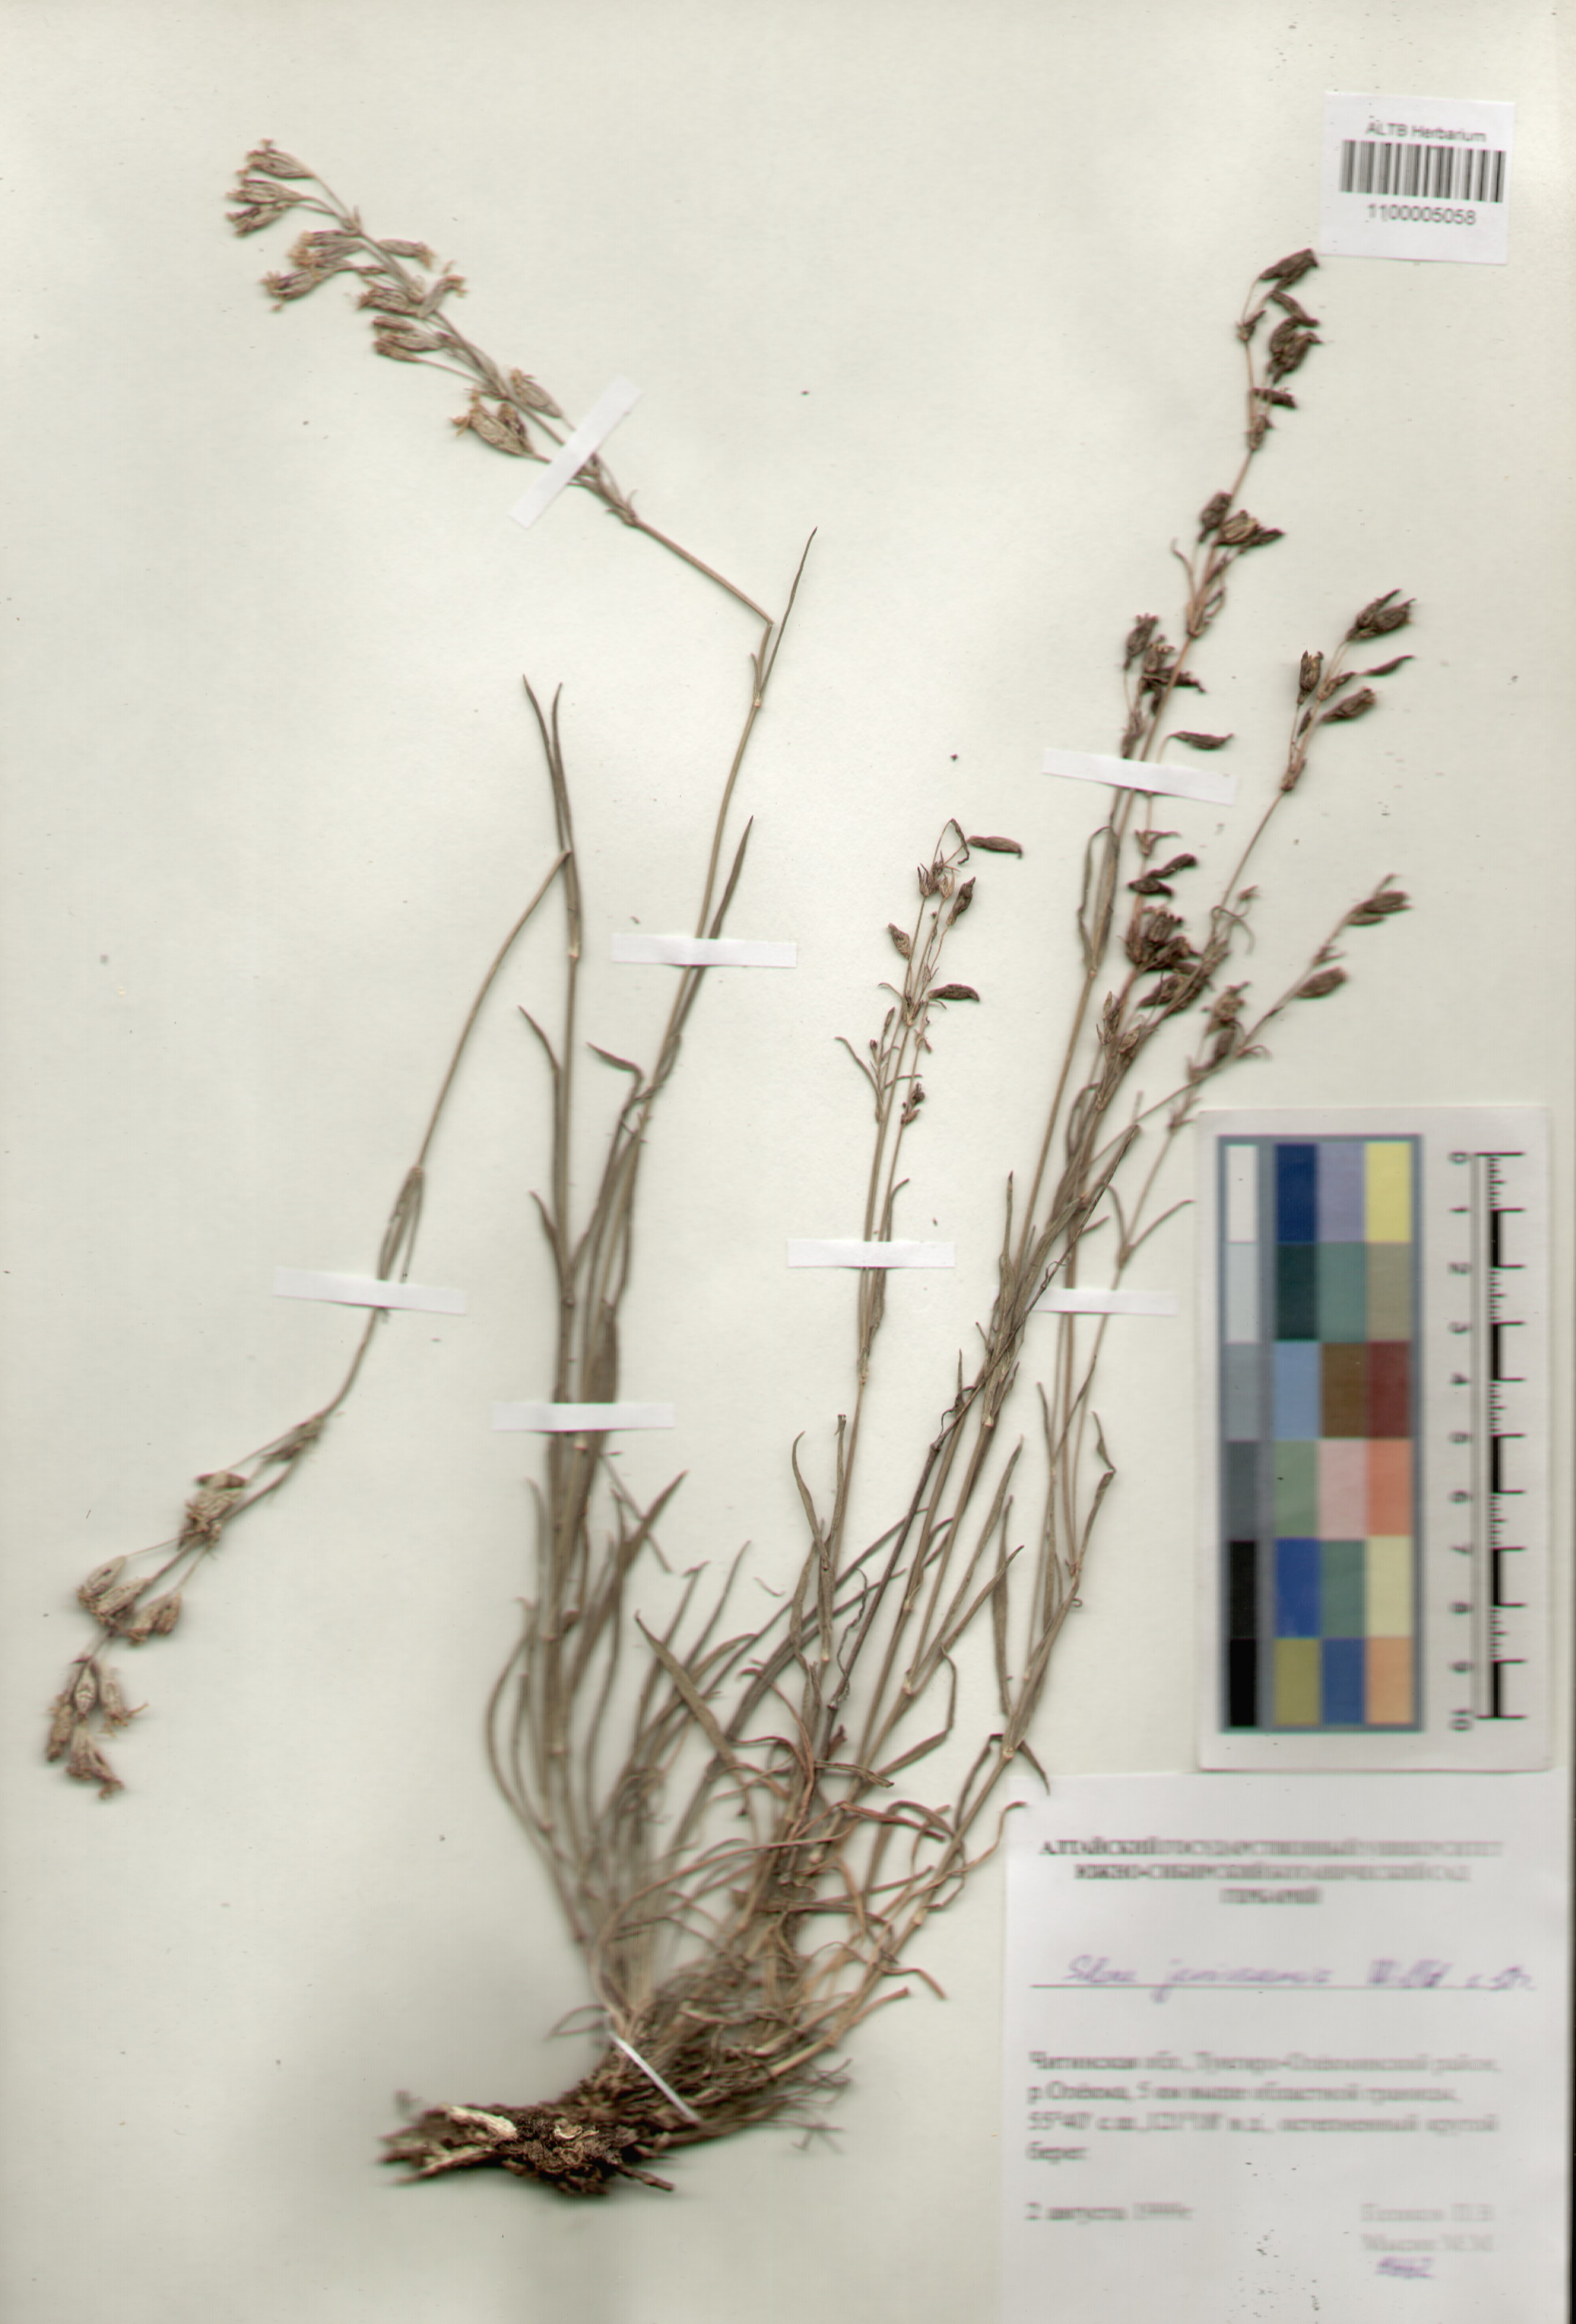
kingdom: Plantae
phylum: Tracheophyta
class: Magnoliopsida
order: Caryophyllales
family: Caryophyllaceae
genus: Silene
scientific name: Silene jeniseensis
